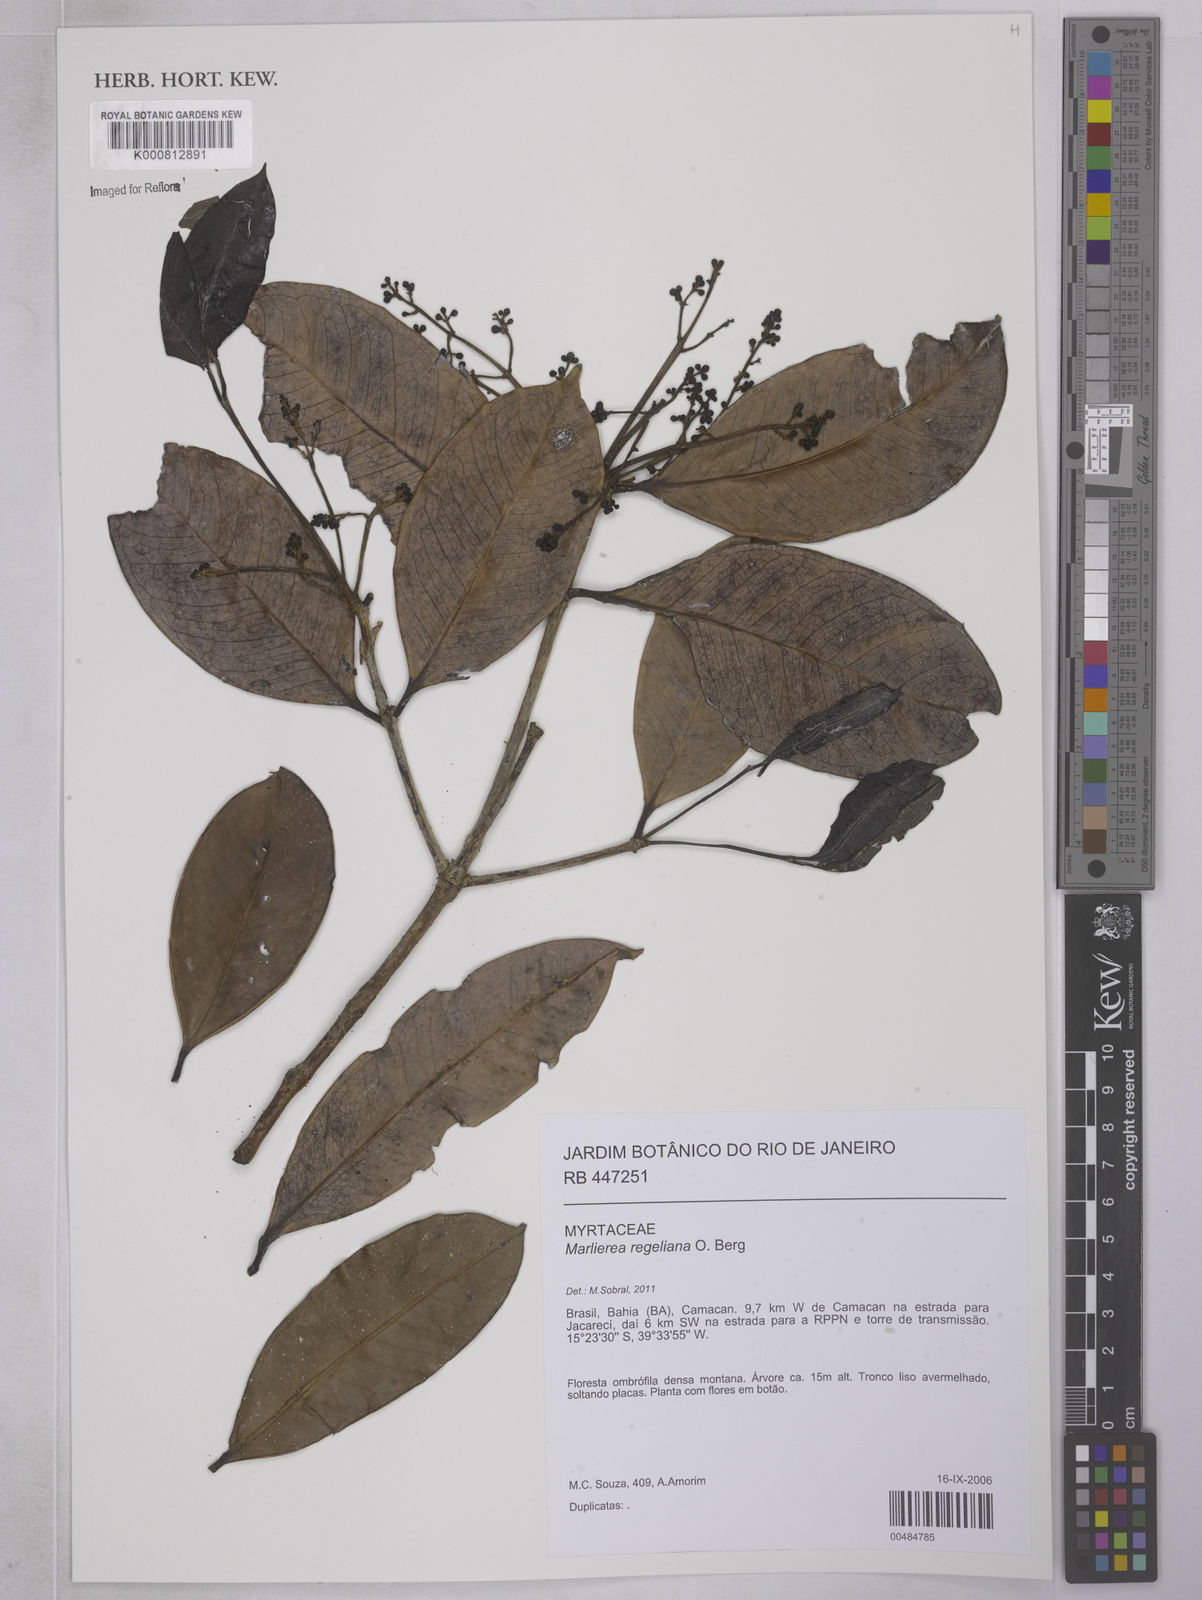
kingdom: Plantae
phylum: Tracheophyta
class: Magnoliopsida
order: Myrtales
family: Myrtaceae
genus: Myrcia
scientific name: Myrcia neoregeliana
